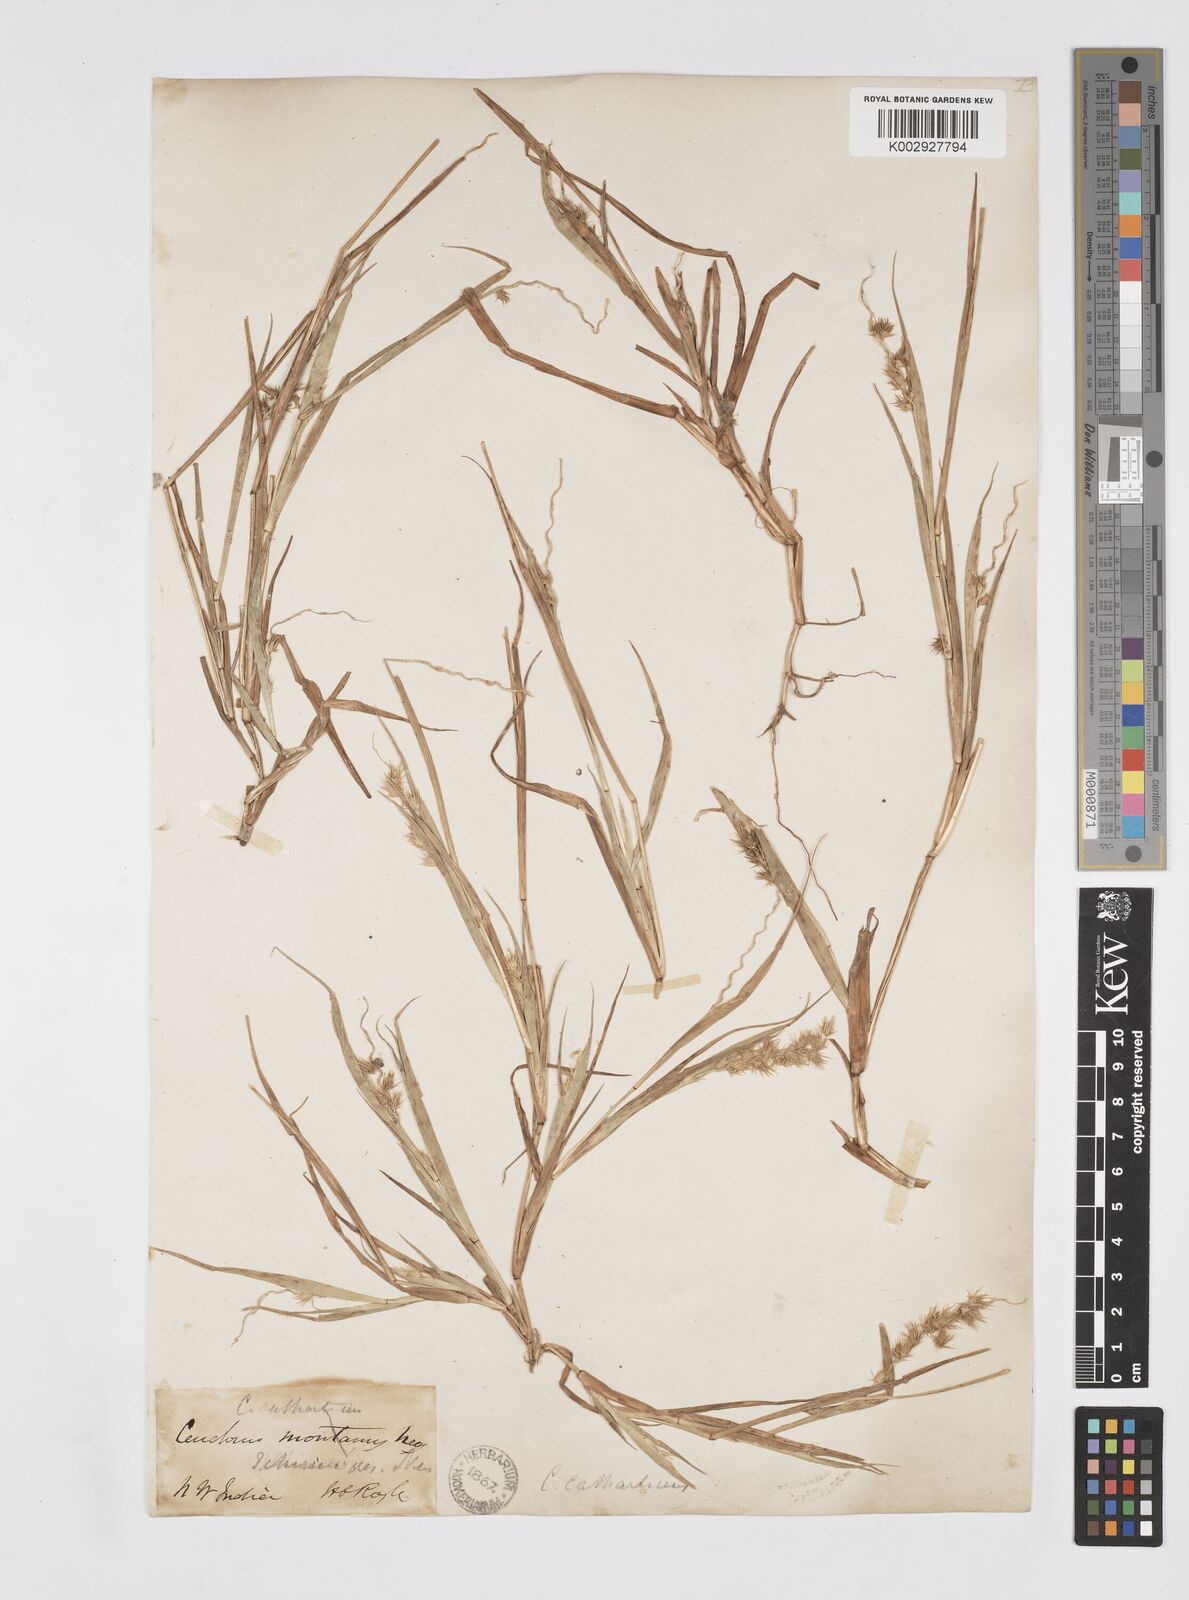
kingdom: Plantae
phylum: Tracheophyta
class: Liliopsida
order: Poales
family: Poaceae
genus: Cenchrus
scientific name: Cenchrus biflorus
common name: Indian sandbur
